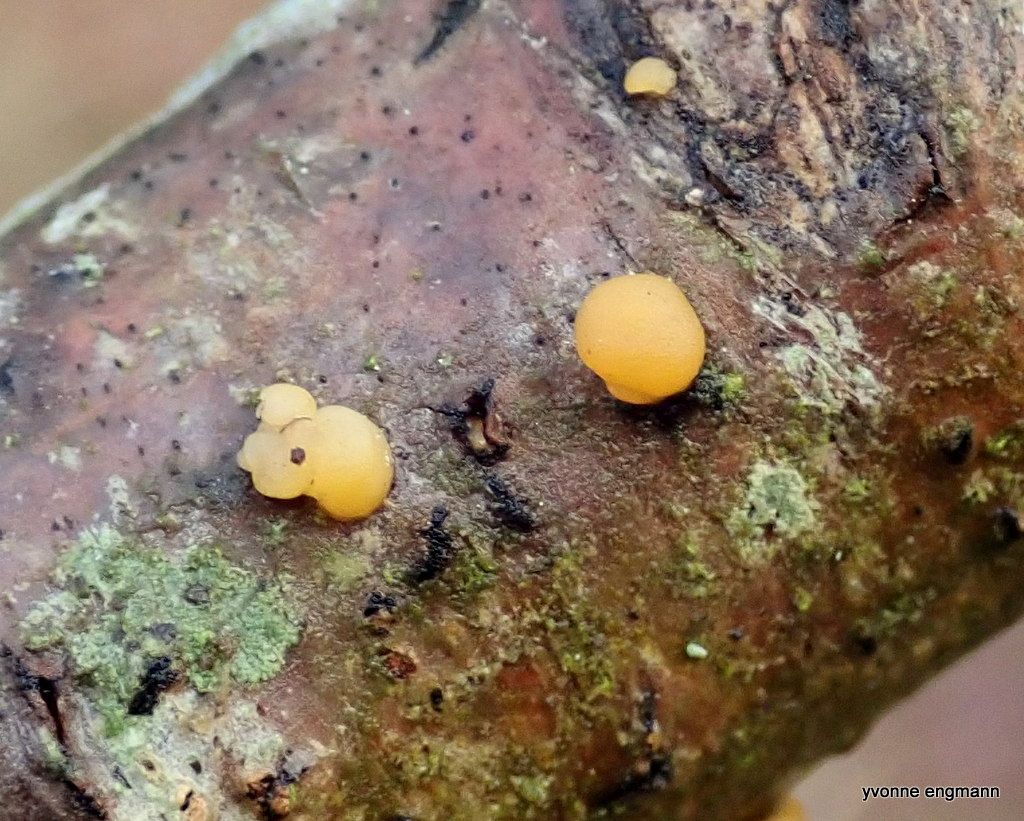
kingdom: Fungi
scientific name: Fungi
